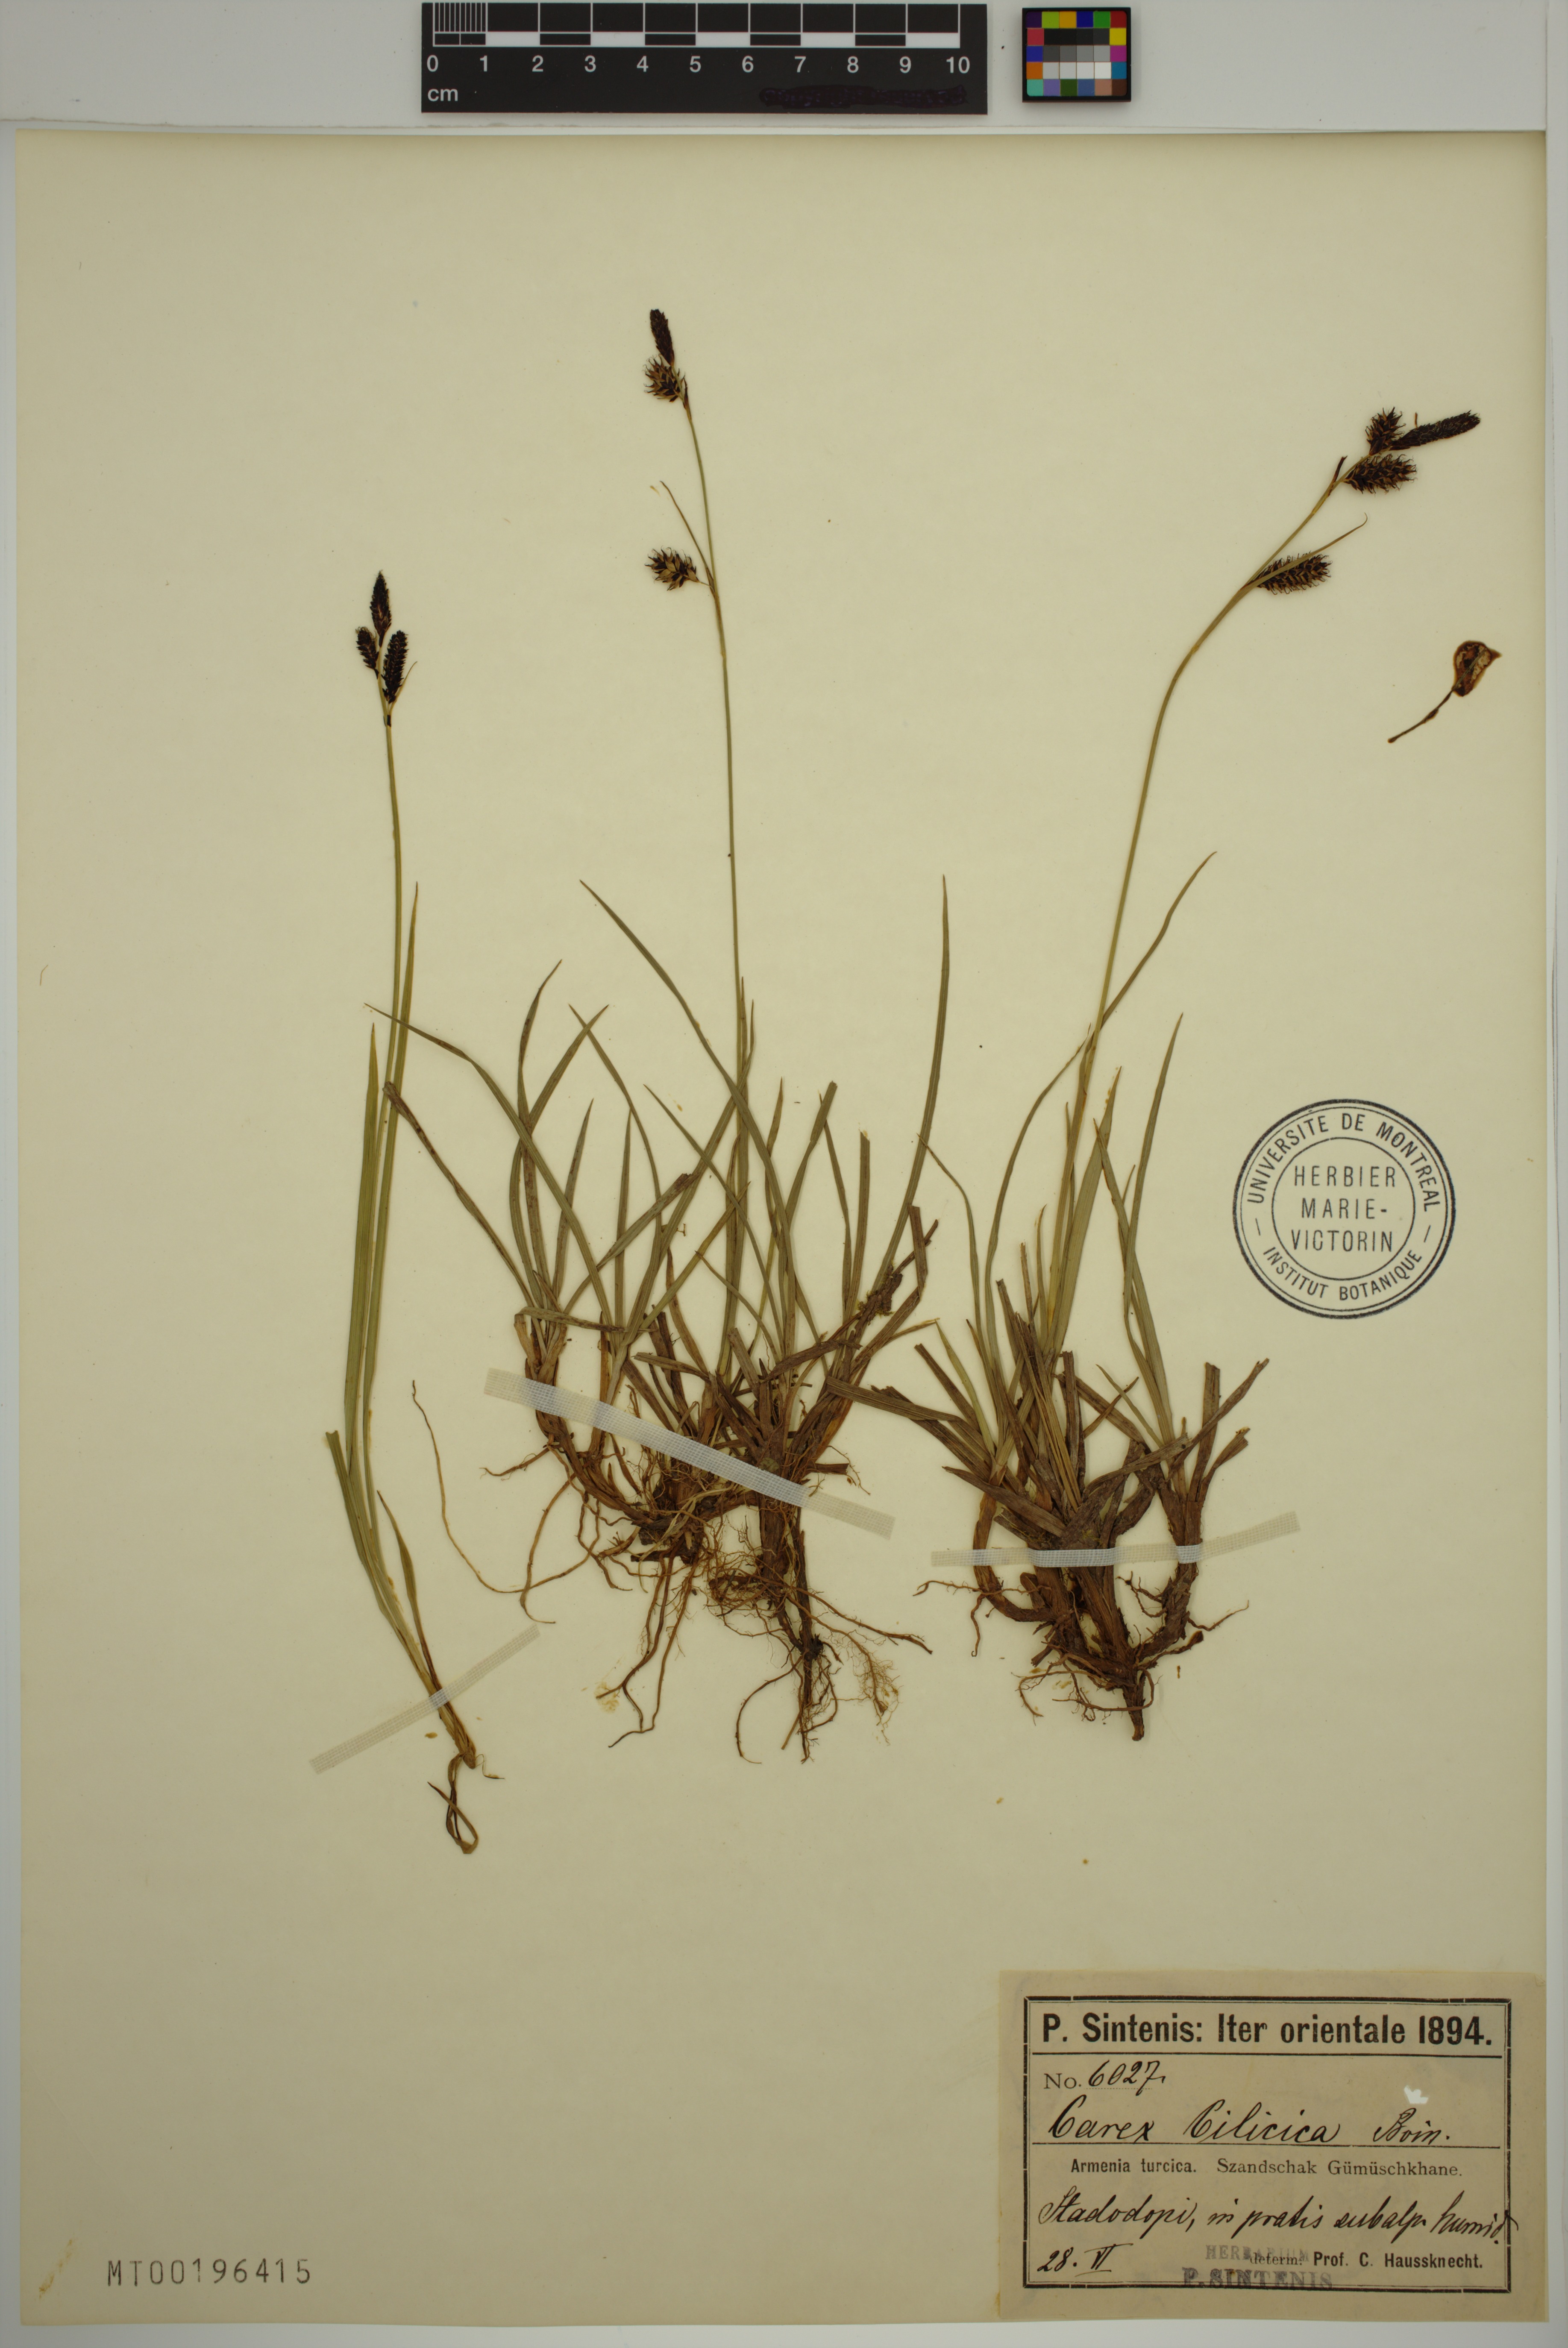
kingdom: Plantae
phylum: Tracheophyta
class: Liliopsida
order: Poales
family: Cyperaceae
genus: Carex
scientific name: Carex cilicica
